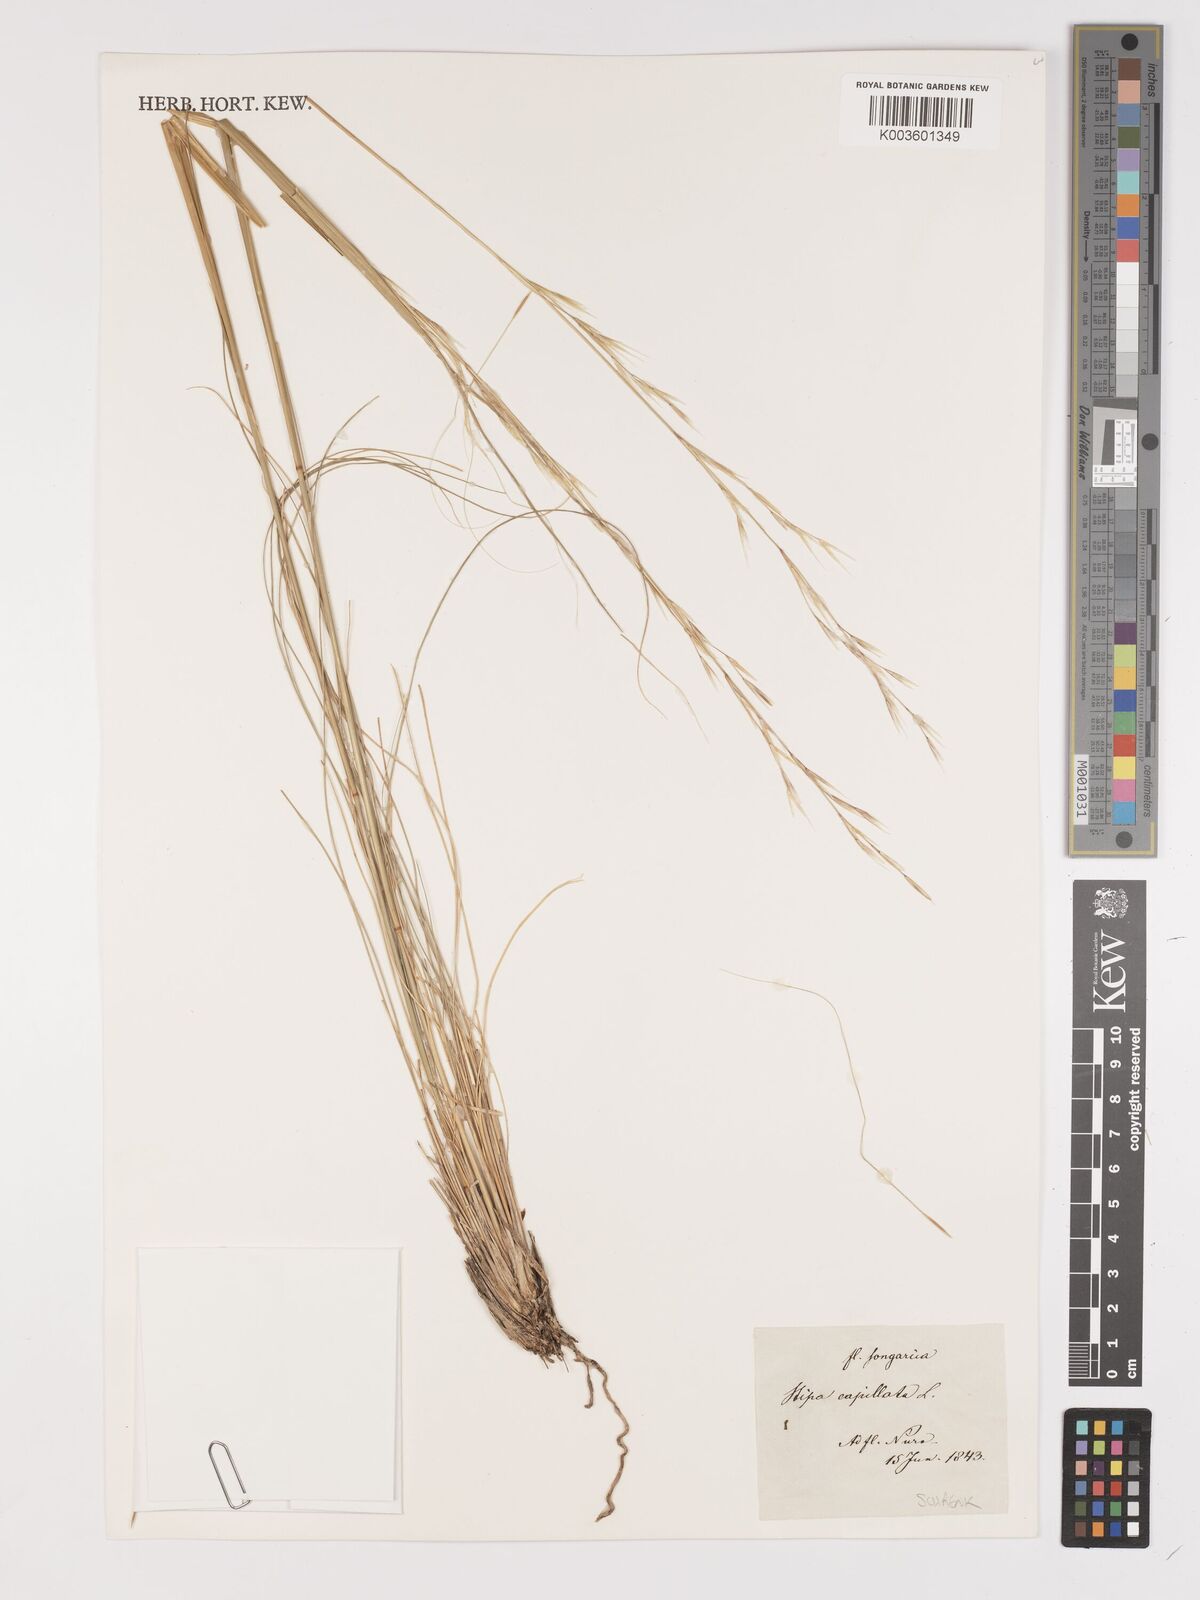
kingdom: Plantae
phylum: Tracheophyta
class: Liliopsida
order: Poales
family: Poaceae
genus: Stipa
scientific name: Stipa capillata
